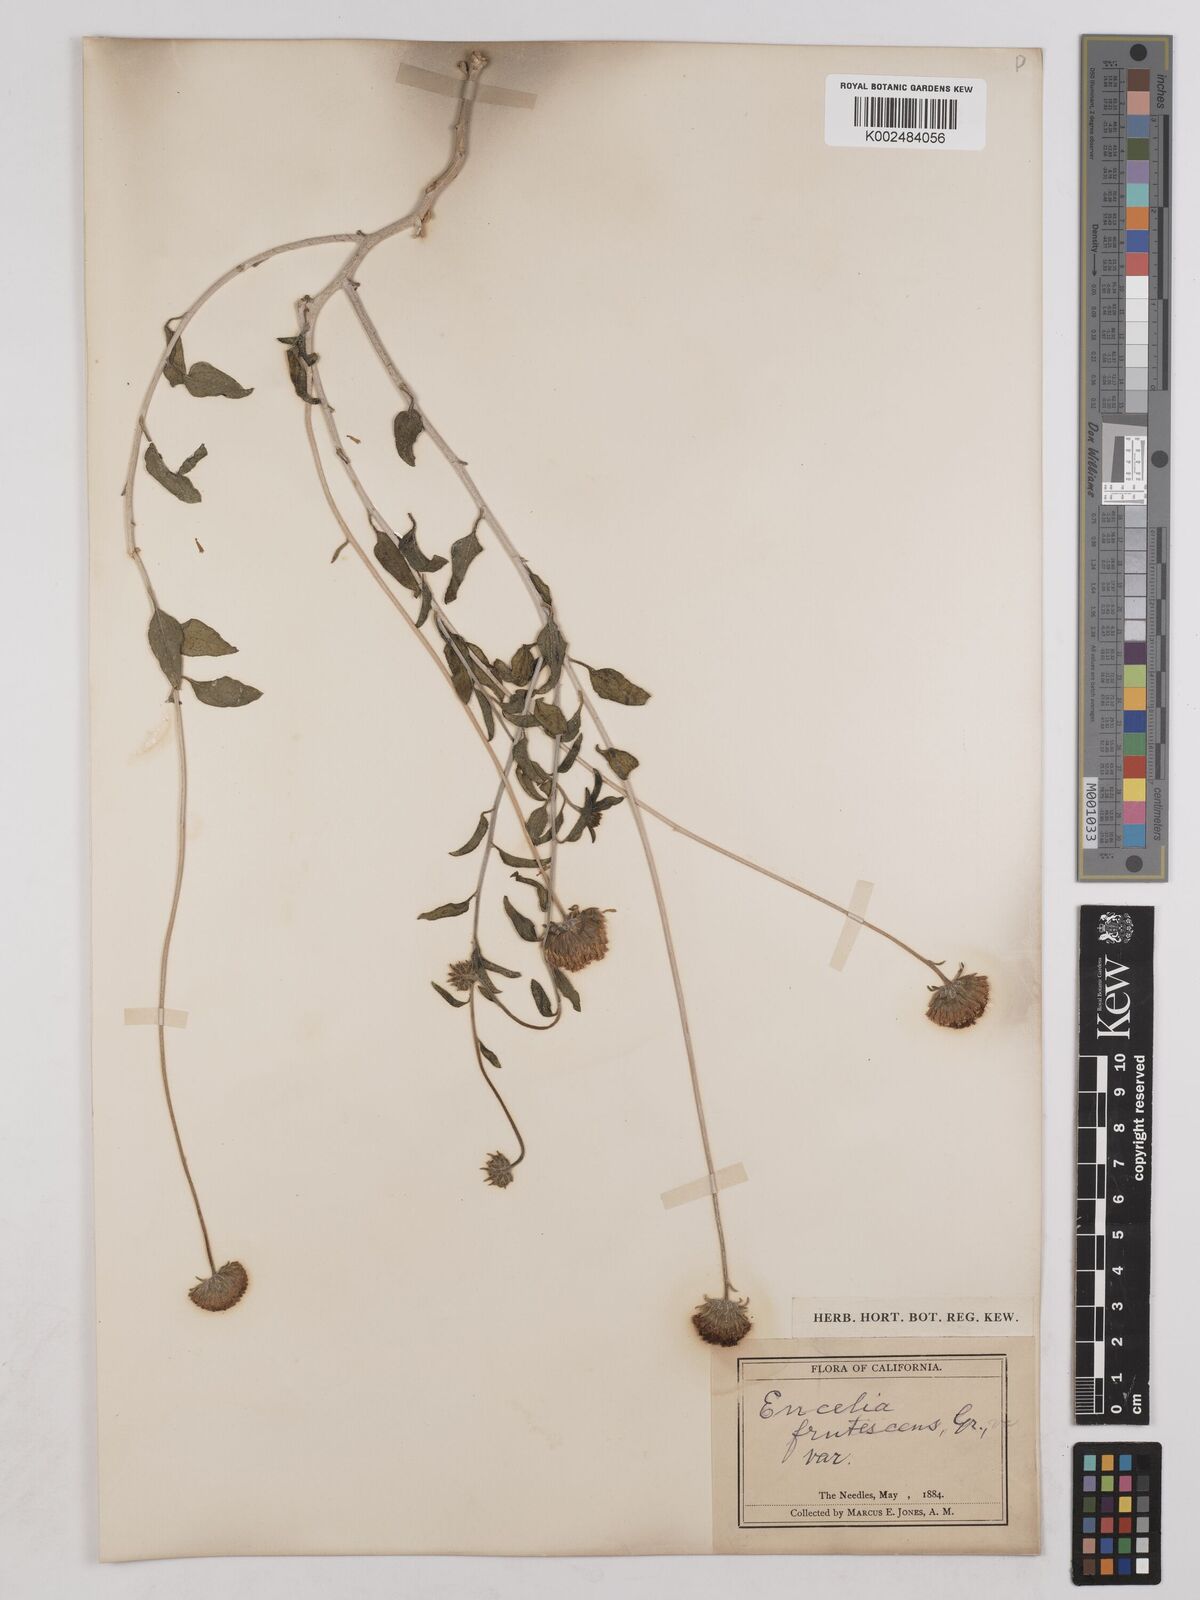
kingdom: Plantae
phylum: Tracheophyta
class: Magnoliopsida
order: Asterales
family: Asteraceae
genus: Encelia
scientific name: Encelia frutescens
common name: Bush encelia
